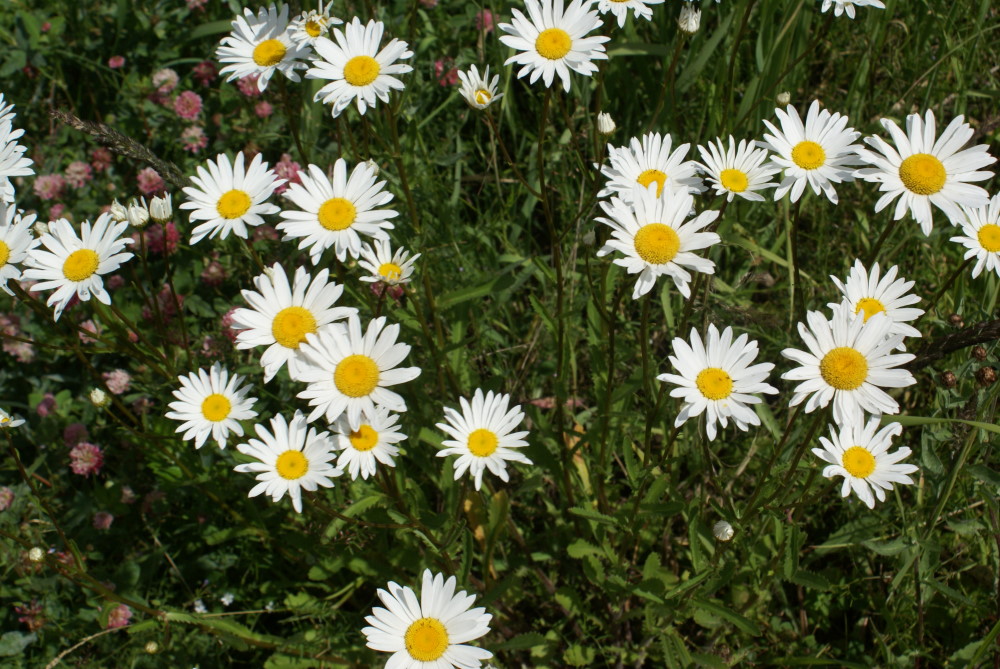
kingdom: Plantae
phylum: Tracheophyta
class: Magnoliopsida
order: Asterales
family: Asteraceae
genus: Leucanthemum
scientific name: Leucanthemum vulgare
